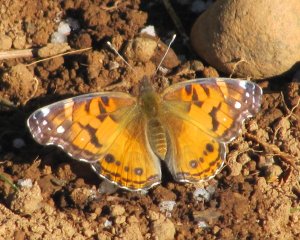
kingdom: Animalia
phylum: Arthropoda
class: Insecta
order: Lepidoptera
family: Nymphalidae
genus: Vanessa
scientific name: Vanessa virginiensis
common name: American Lady
